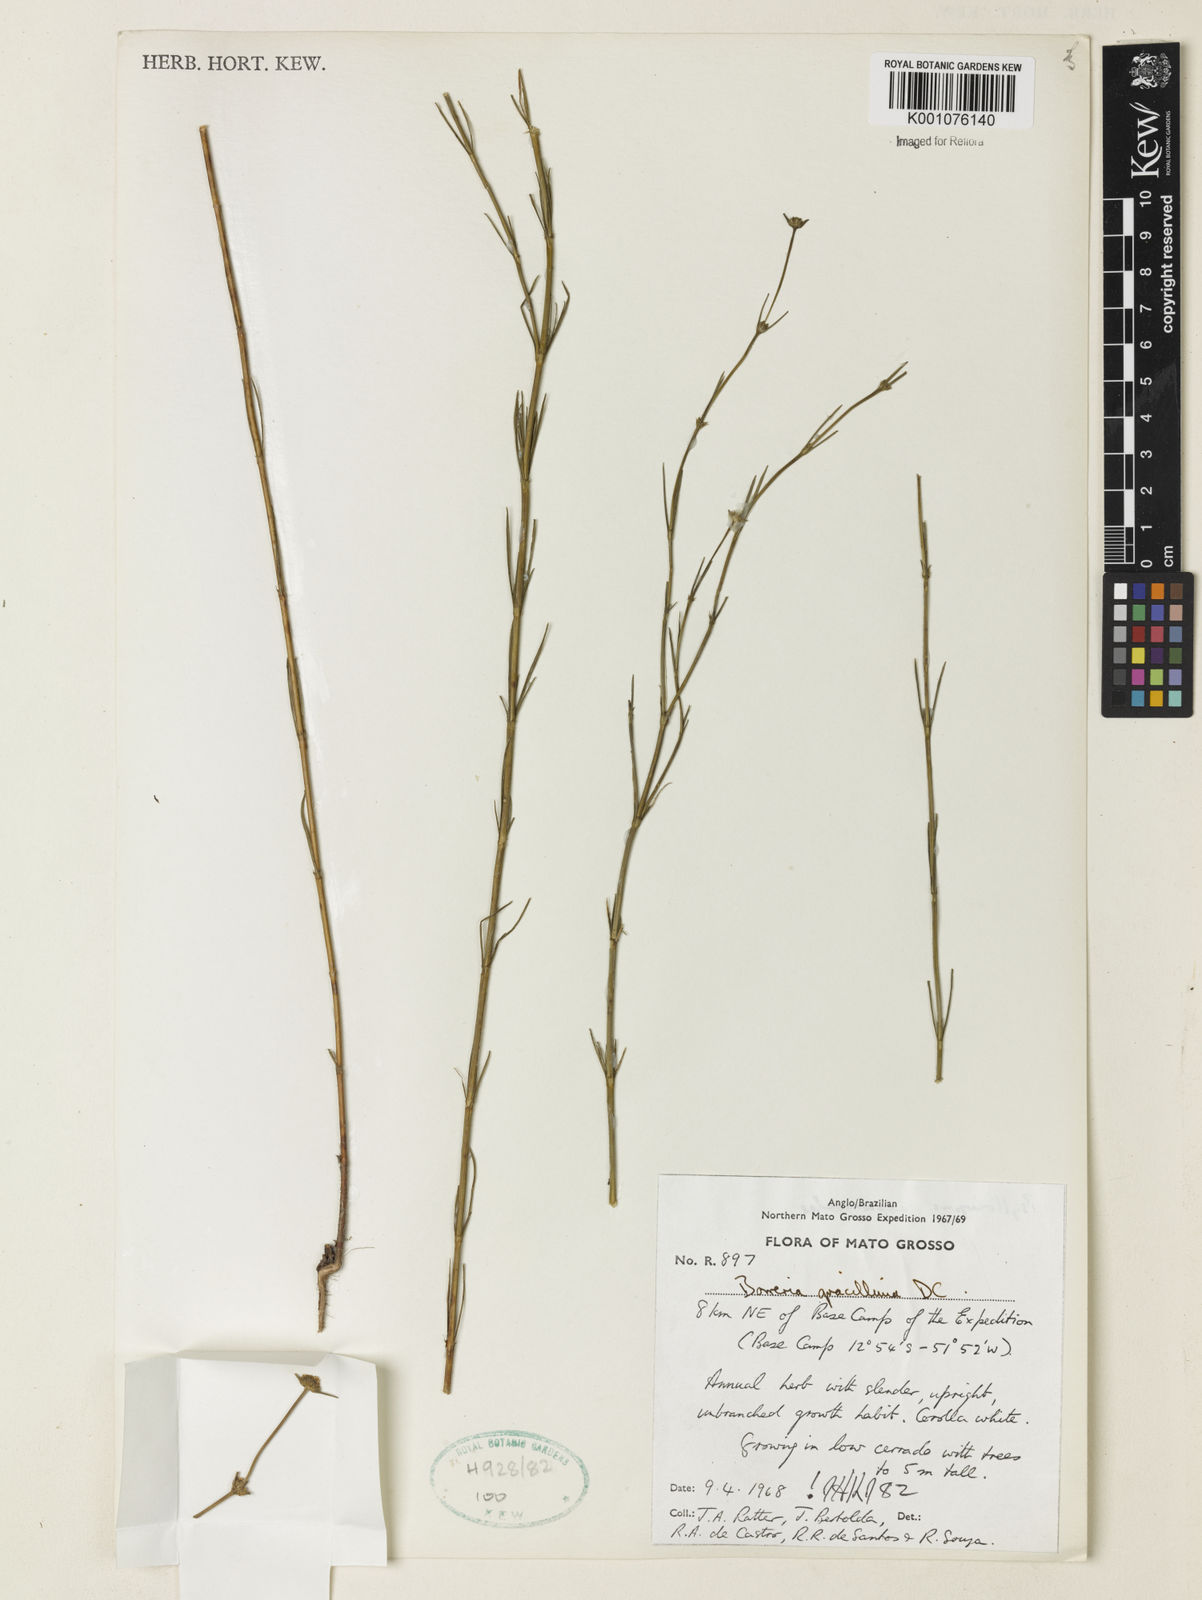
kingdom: Plantae
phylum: Tracheophyta
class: Magnoliopsida
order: Gentianales
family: Rubiaceae
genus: Spermacoce
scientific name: Spermacoce gracillima
